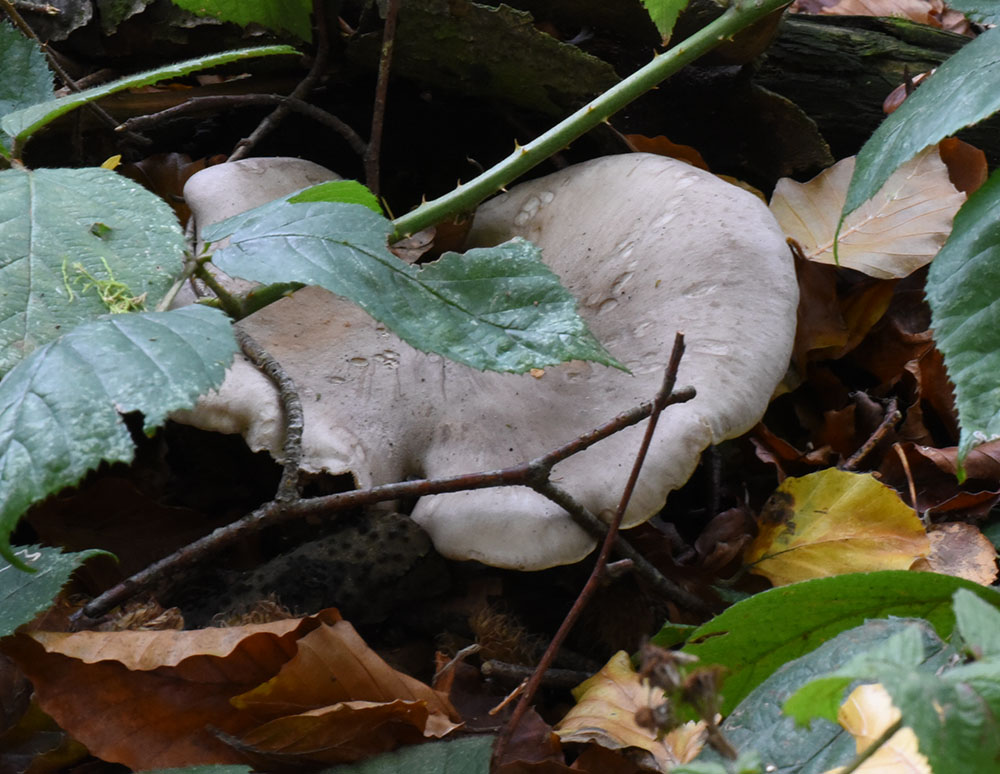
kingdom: Fungi
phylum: Basidiomycota
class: Agaricomycetes
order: Agaricales
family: Tricholomataceae
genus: Clitocybe
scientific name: Clitocybe nebularis
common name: Clouded agaric
